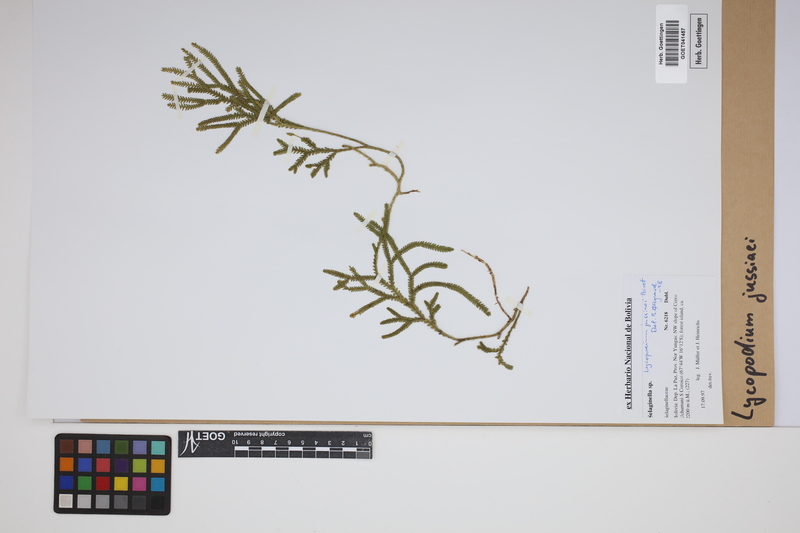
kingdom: Plantae
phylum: Tracheophyta
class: Lycopodiopsida
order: Lycopodiales
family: Lycopodiaceae
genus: Diphasium
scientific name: Diphasium jussiaei
